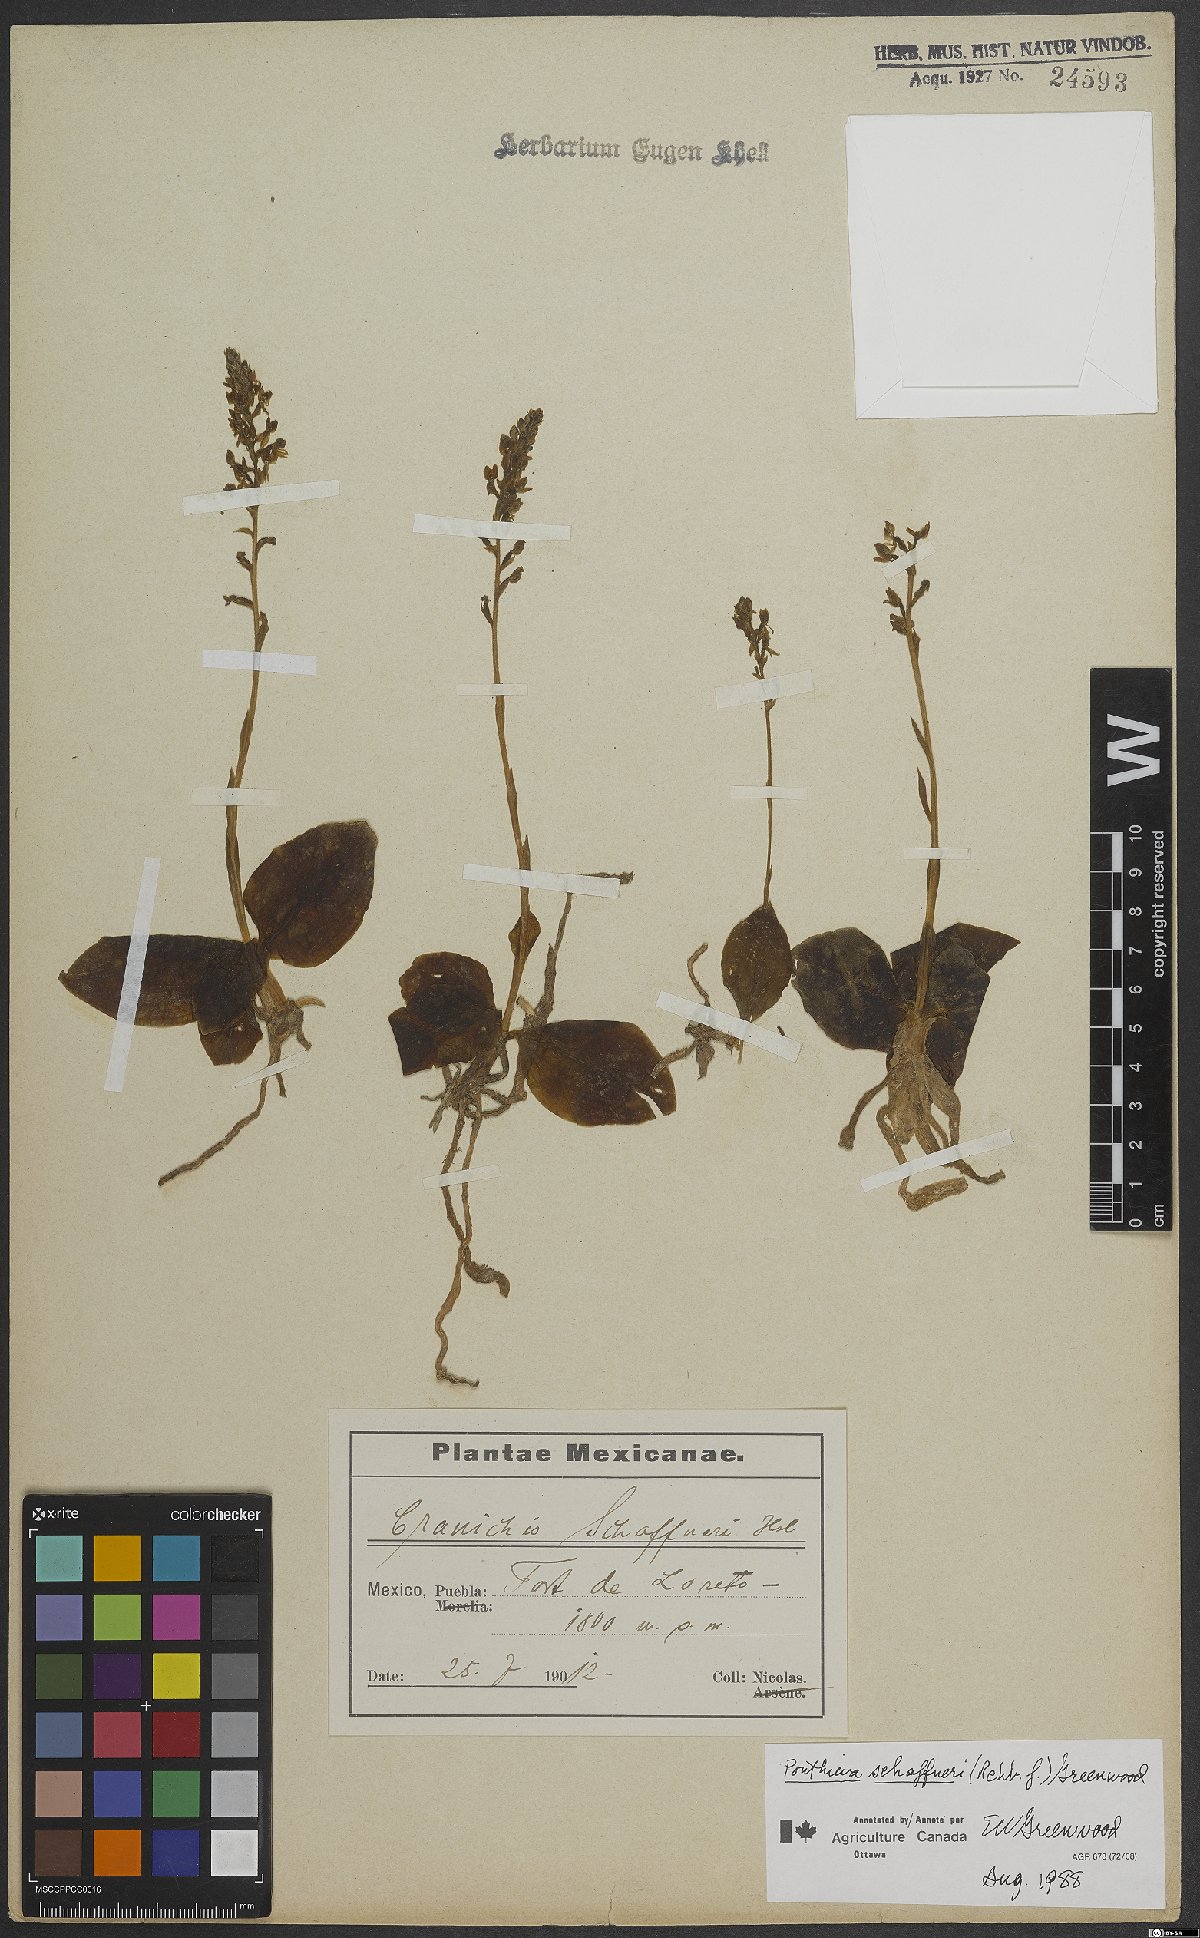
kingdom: Plantae
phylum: Tracheophyta
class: Liliopsida
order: Asparagales
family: Orchidaceae
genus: Ponthieva
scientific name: Ponthieva schaffneri
